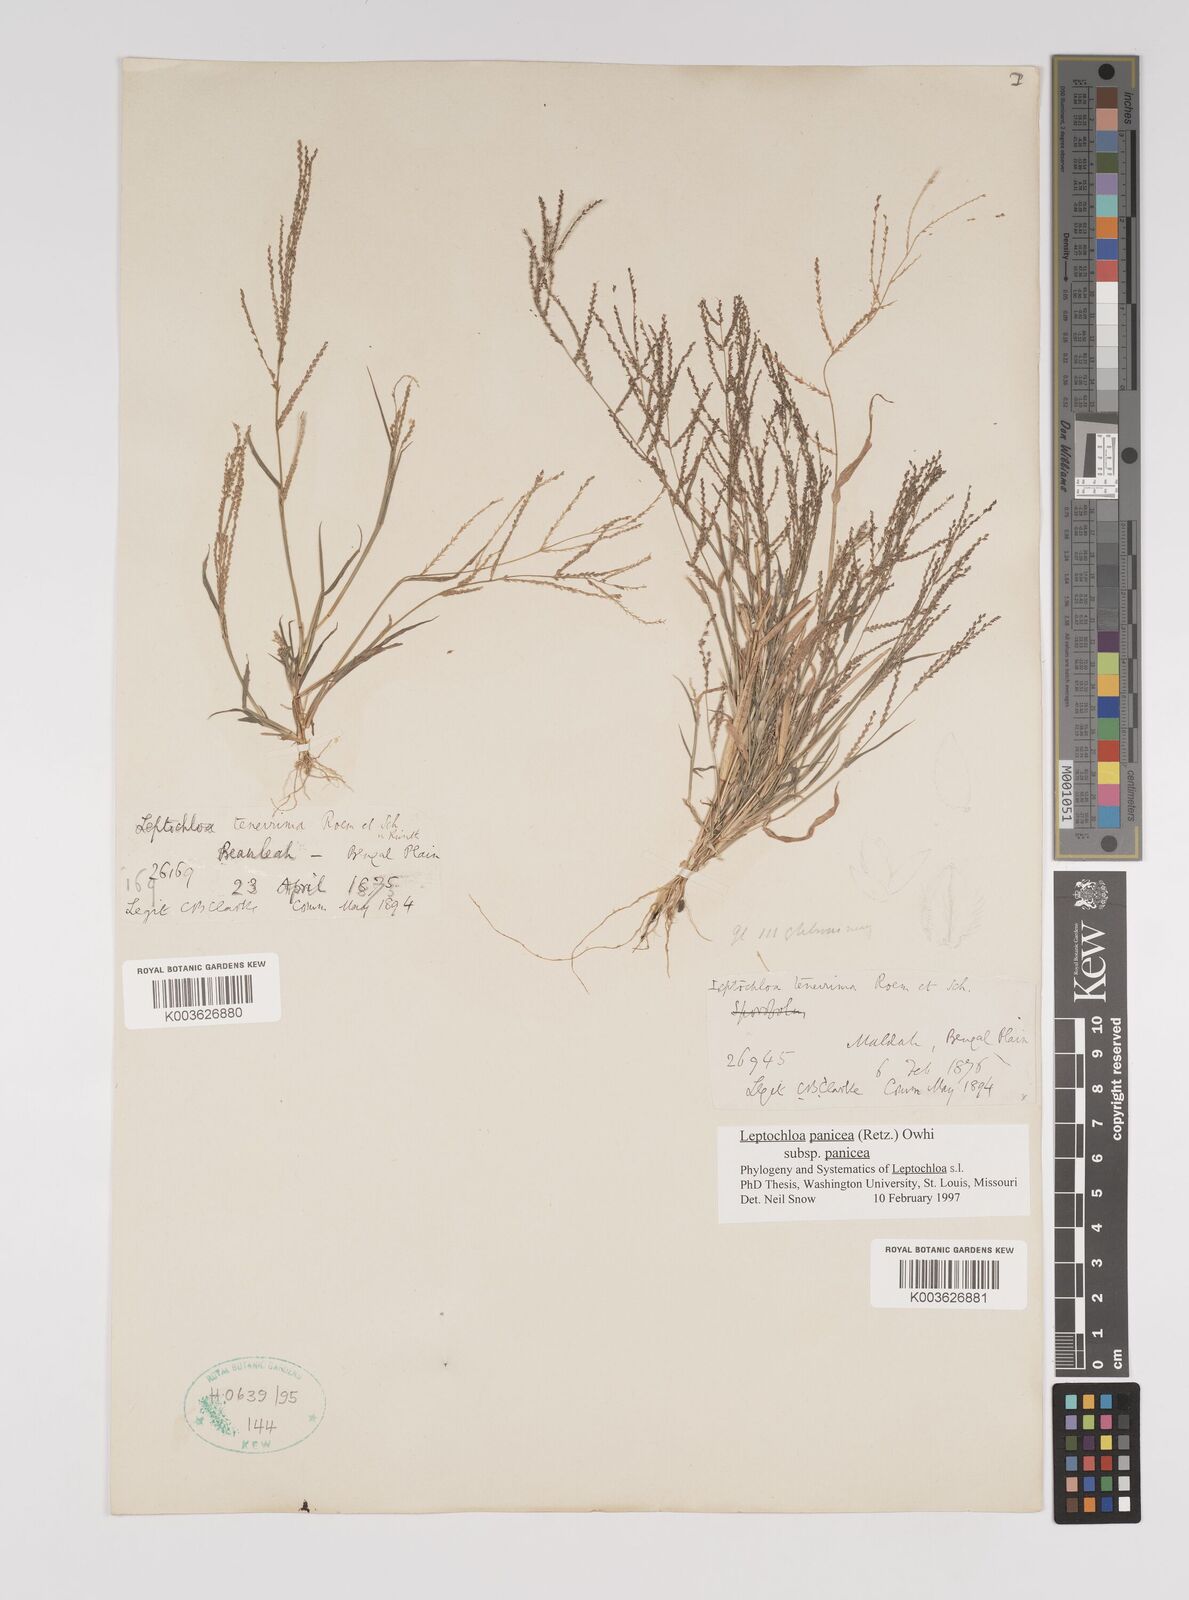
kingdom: Plantae
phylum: Tracheophyta
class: Liliopsida
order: Poales
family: Poaceae
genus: Leptochloa
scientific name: Leptochloa panicea
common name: Mucronate sprangletop
